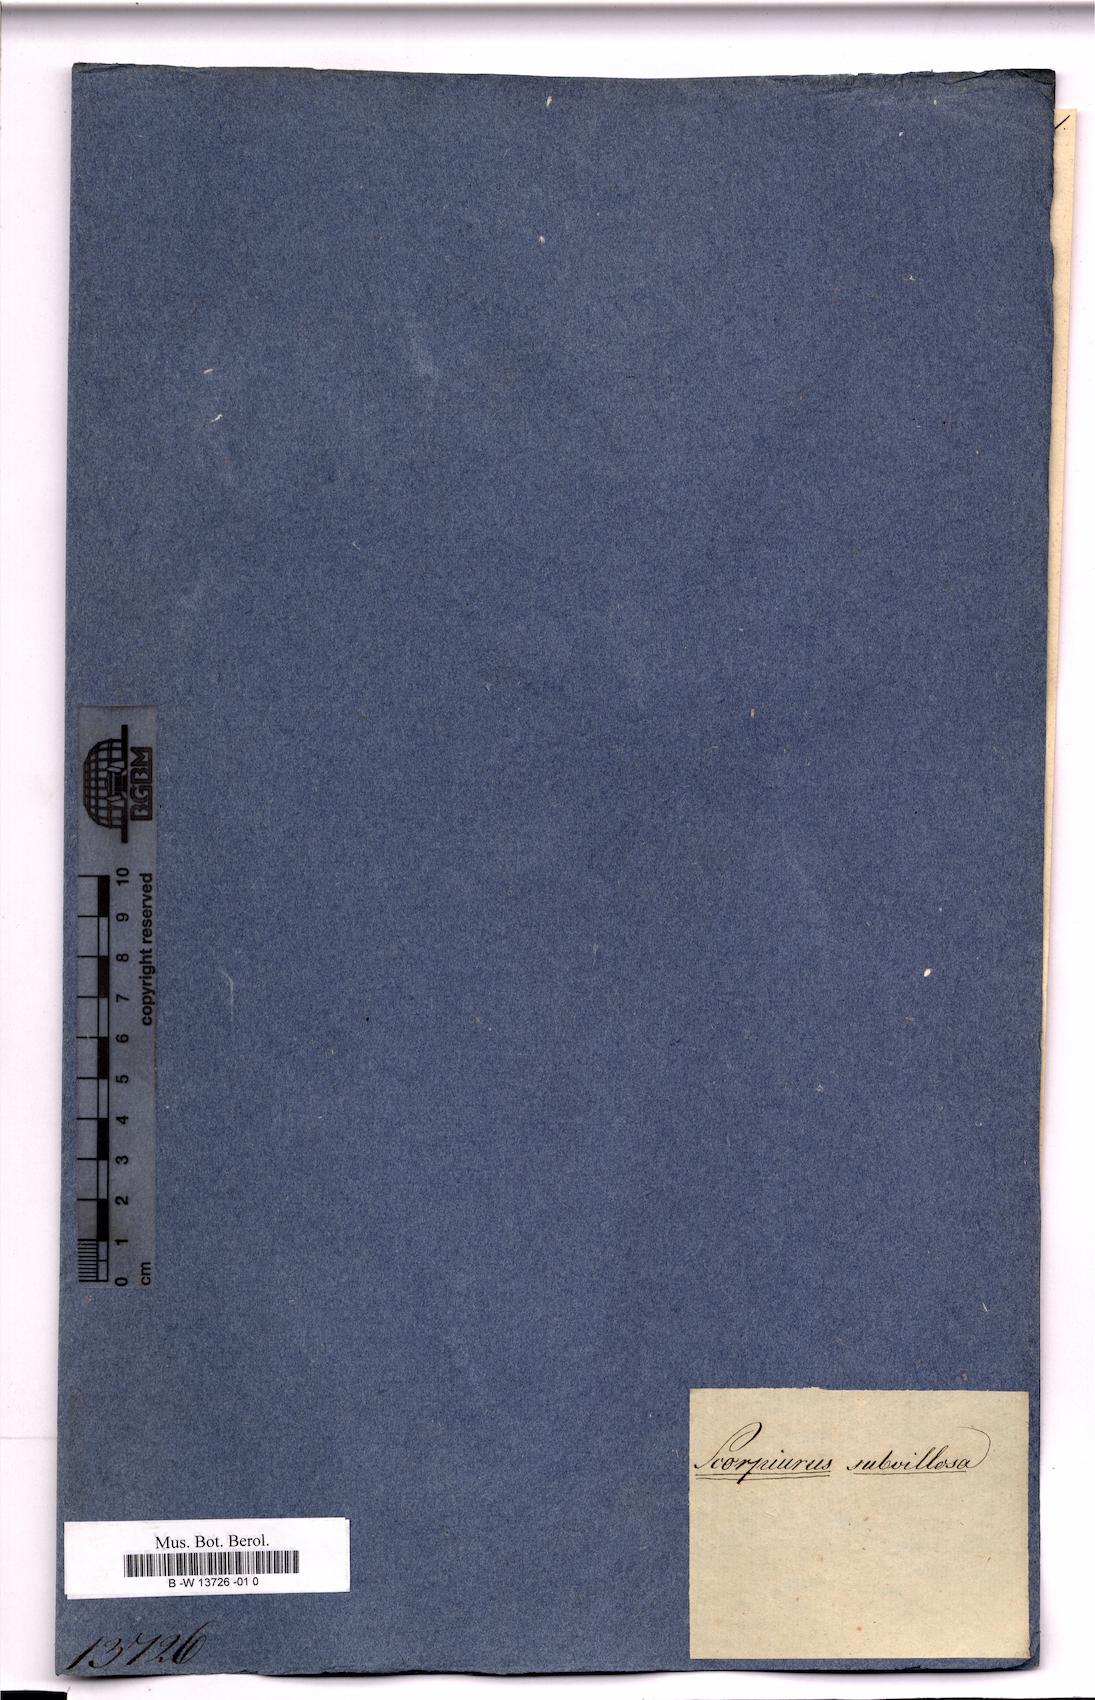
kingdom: Plantae
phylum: Tracheophyta
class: Magnoliopsida
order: Fabales
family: Fabaceae
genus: Scorpiurus
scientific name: Scorpiurus subvillosus
